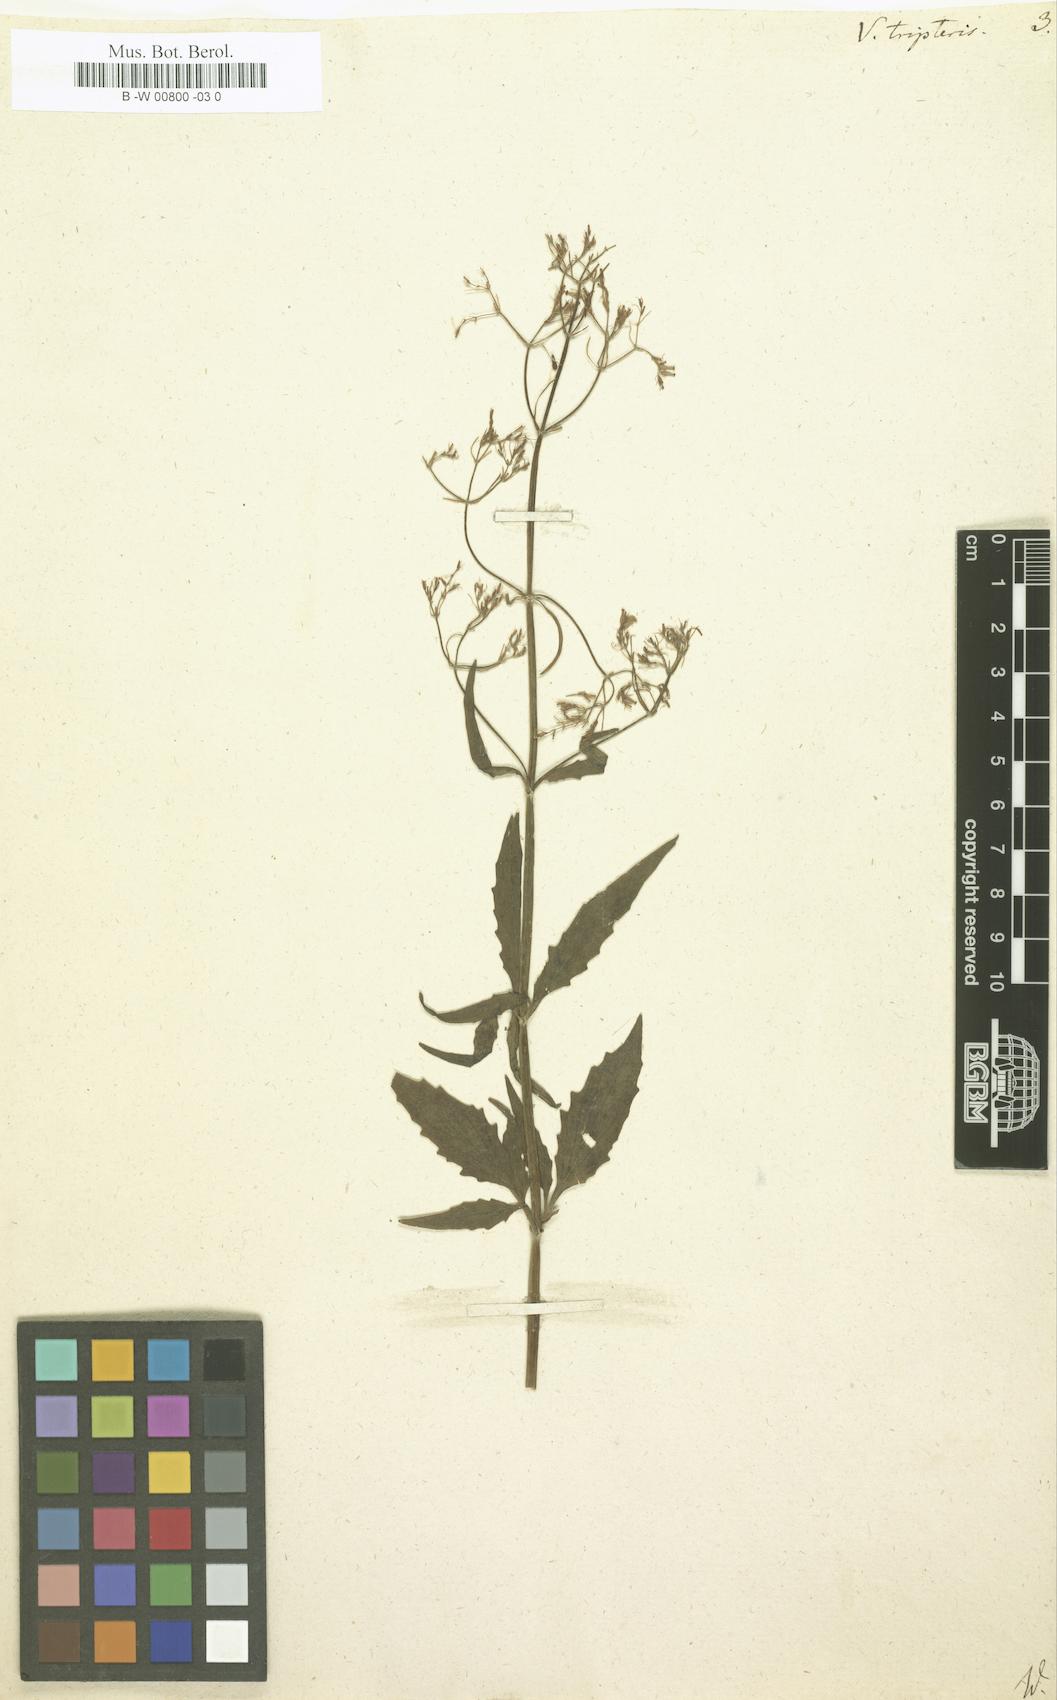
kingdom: Plantae
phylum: Tracheophyta
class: Magnoliopsida
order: Dipsacales
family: Caprifoliaceae
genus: Valeriana
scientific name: Valeriana tripteris
